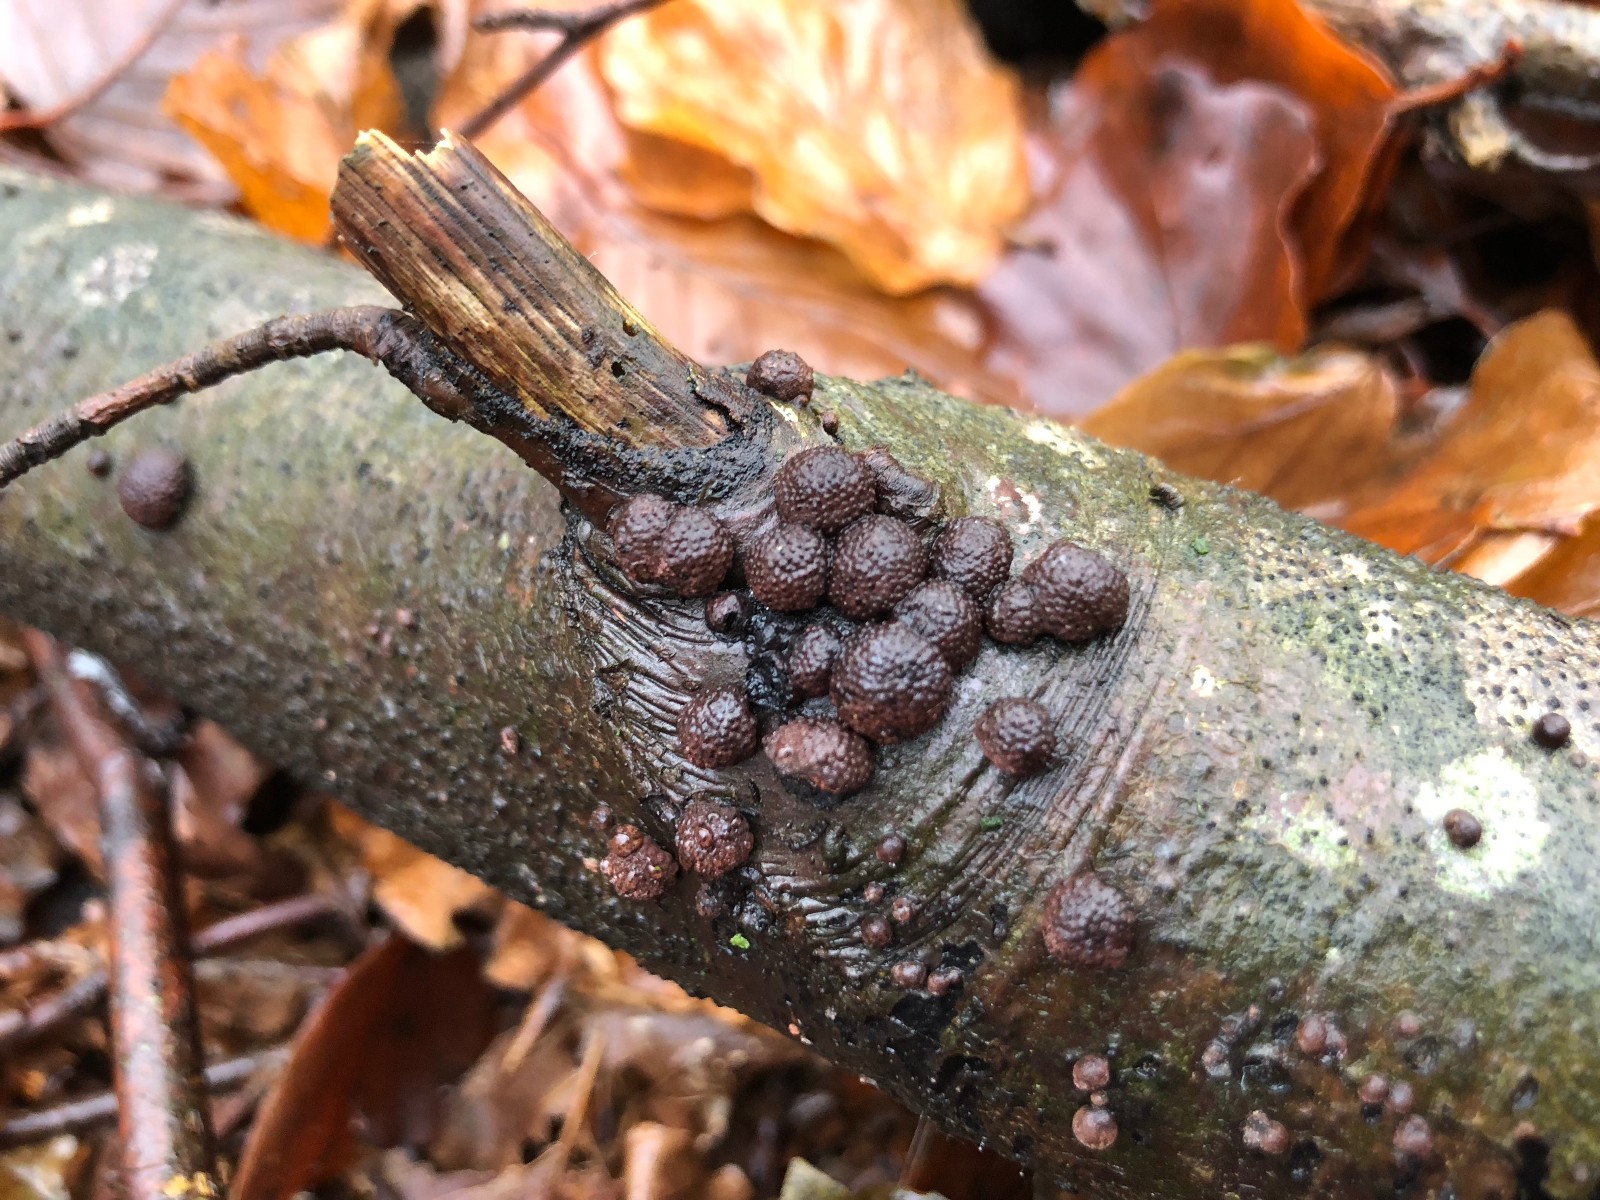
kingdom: Fungi
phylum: Ascomycota
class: Sordariomycetes
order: Xylariales
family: Hypoxylaceae
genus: Hypoxylon
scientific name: Hypoxylon fragiforme
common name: kuljordbær
